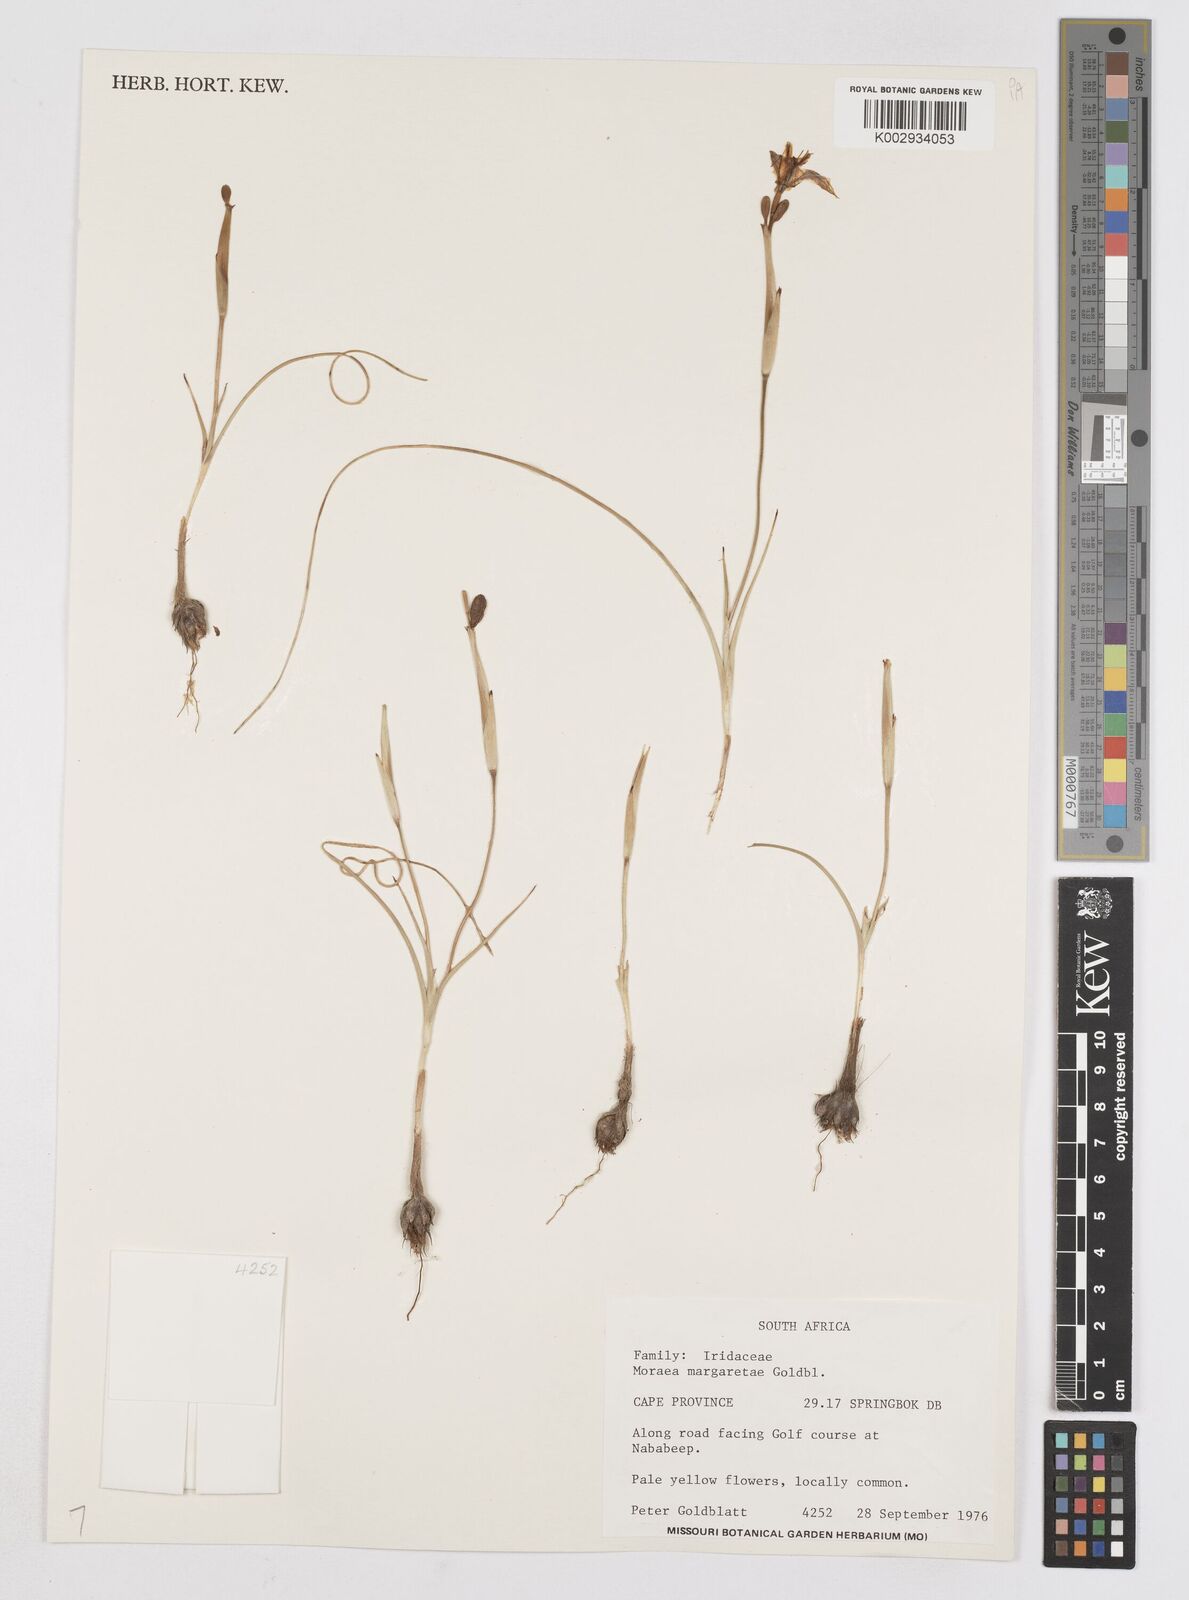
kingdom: Plantae
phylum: Tracheophyta
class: Liliopsida
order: Asparagales
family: Iridaceae
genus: Moraea
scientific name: Moraea margaretae
